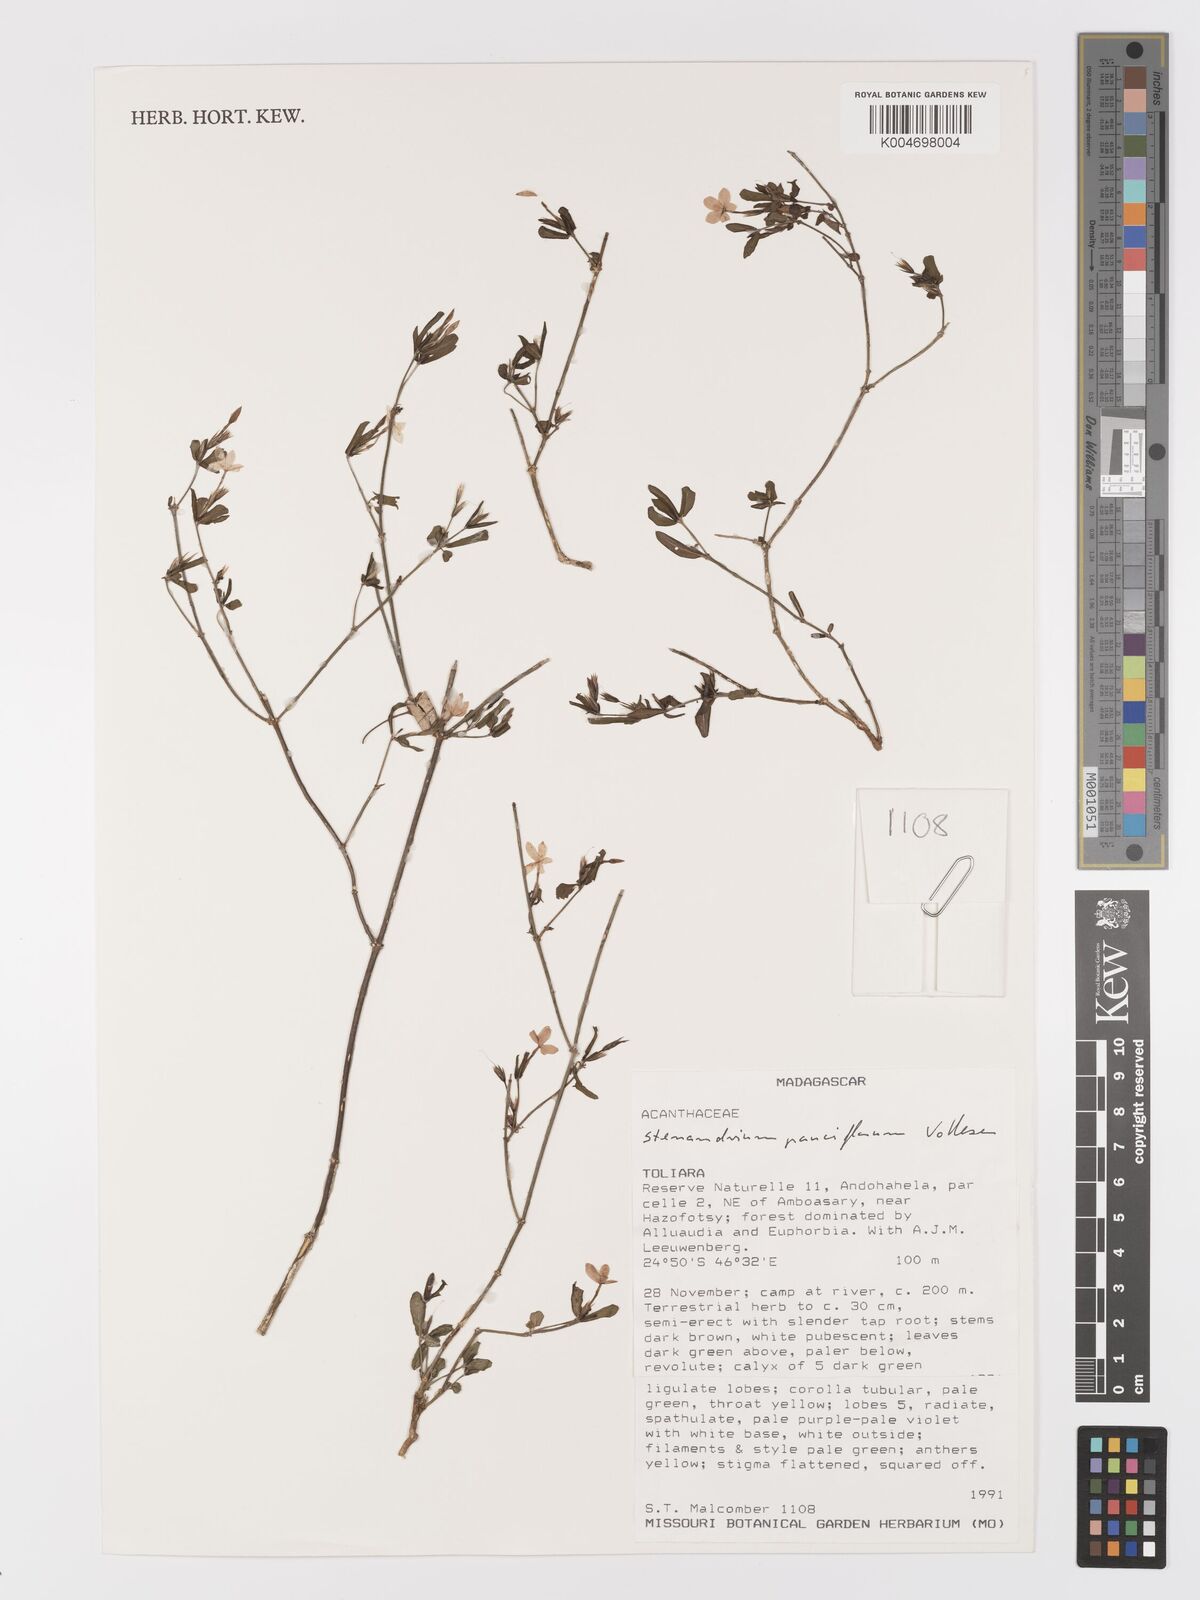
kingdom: Plantae
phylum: Tracheophyta
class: Magnoliopsida
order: Lamiales
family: Acanthaceae
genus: Stenandriopsis
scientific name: Stenandriopsis
